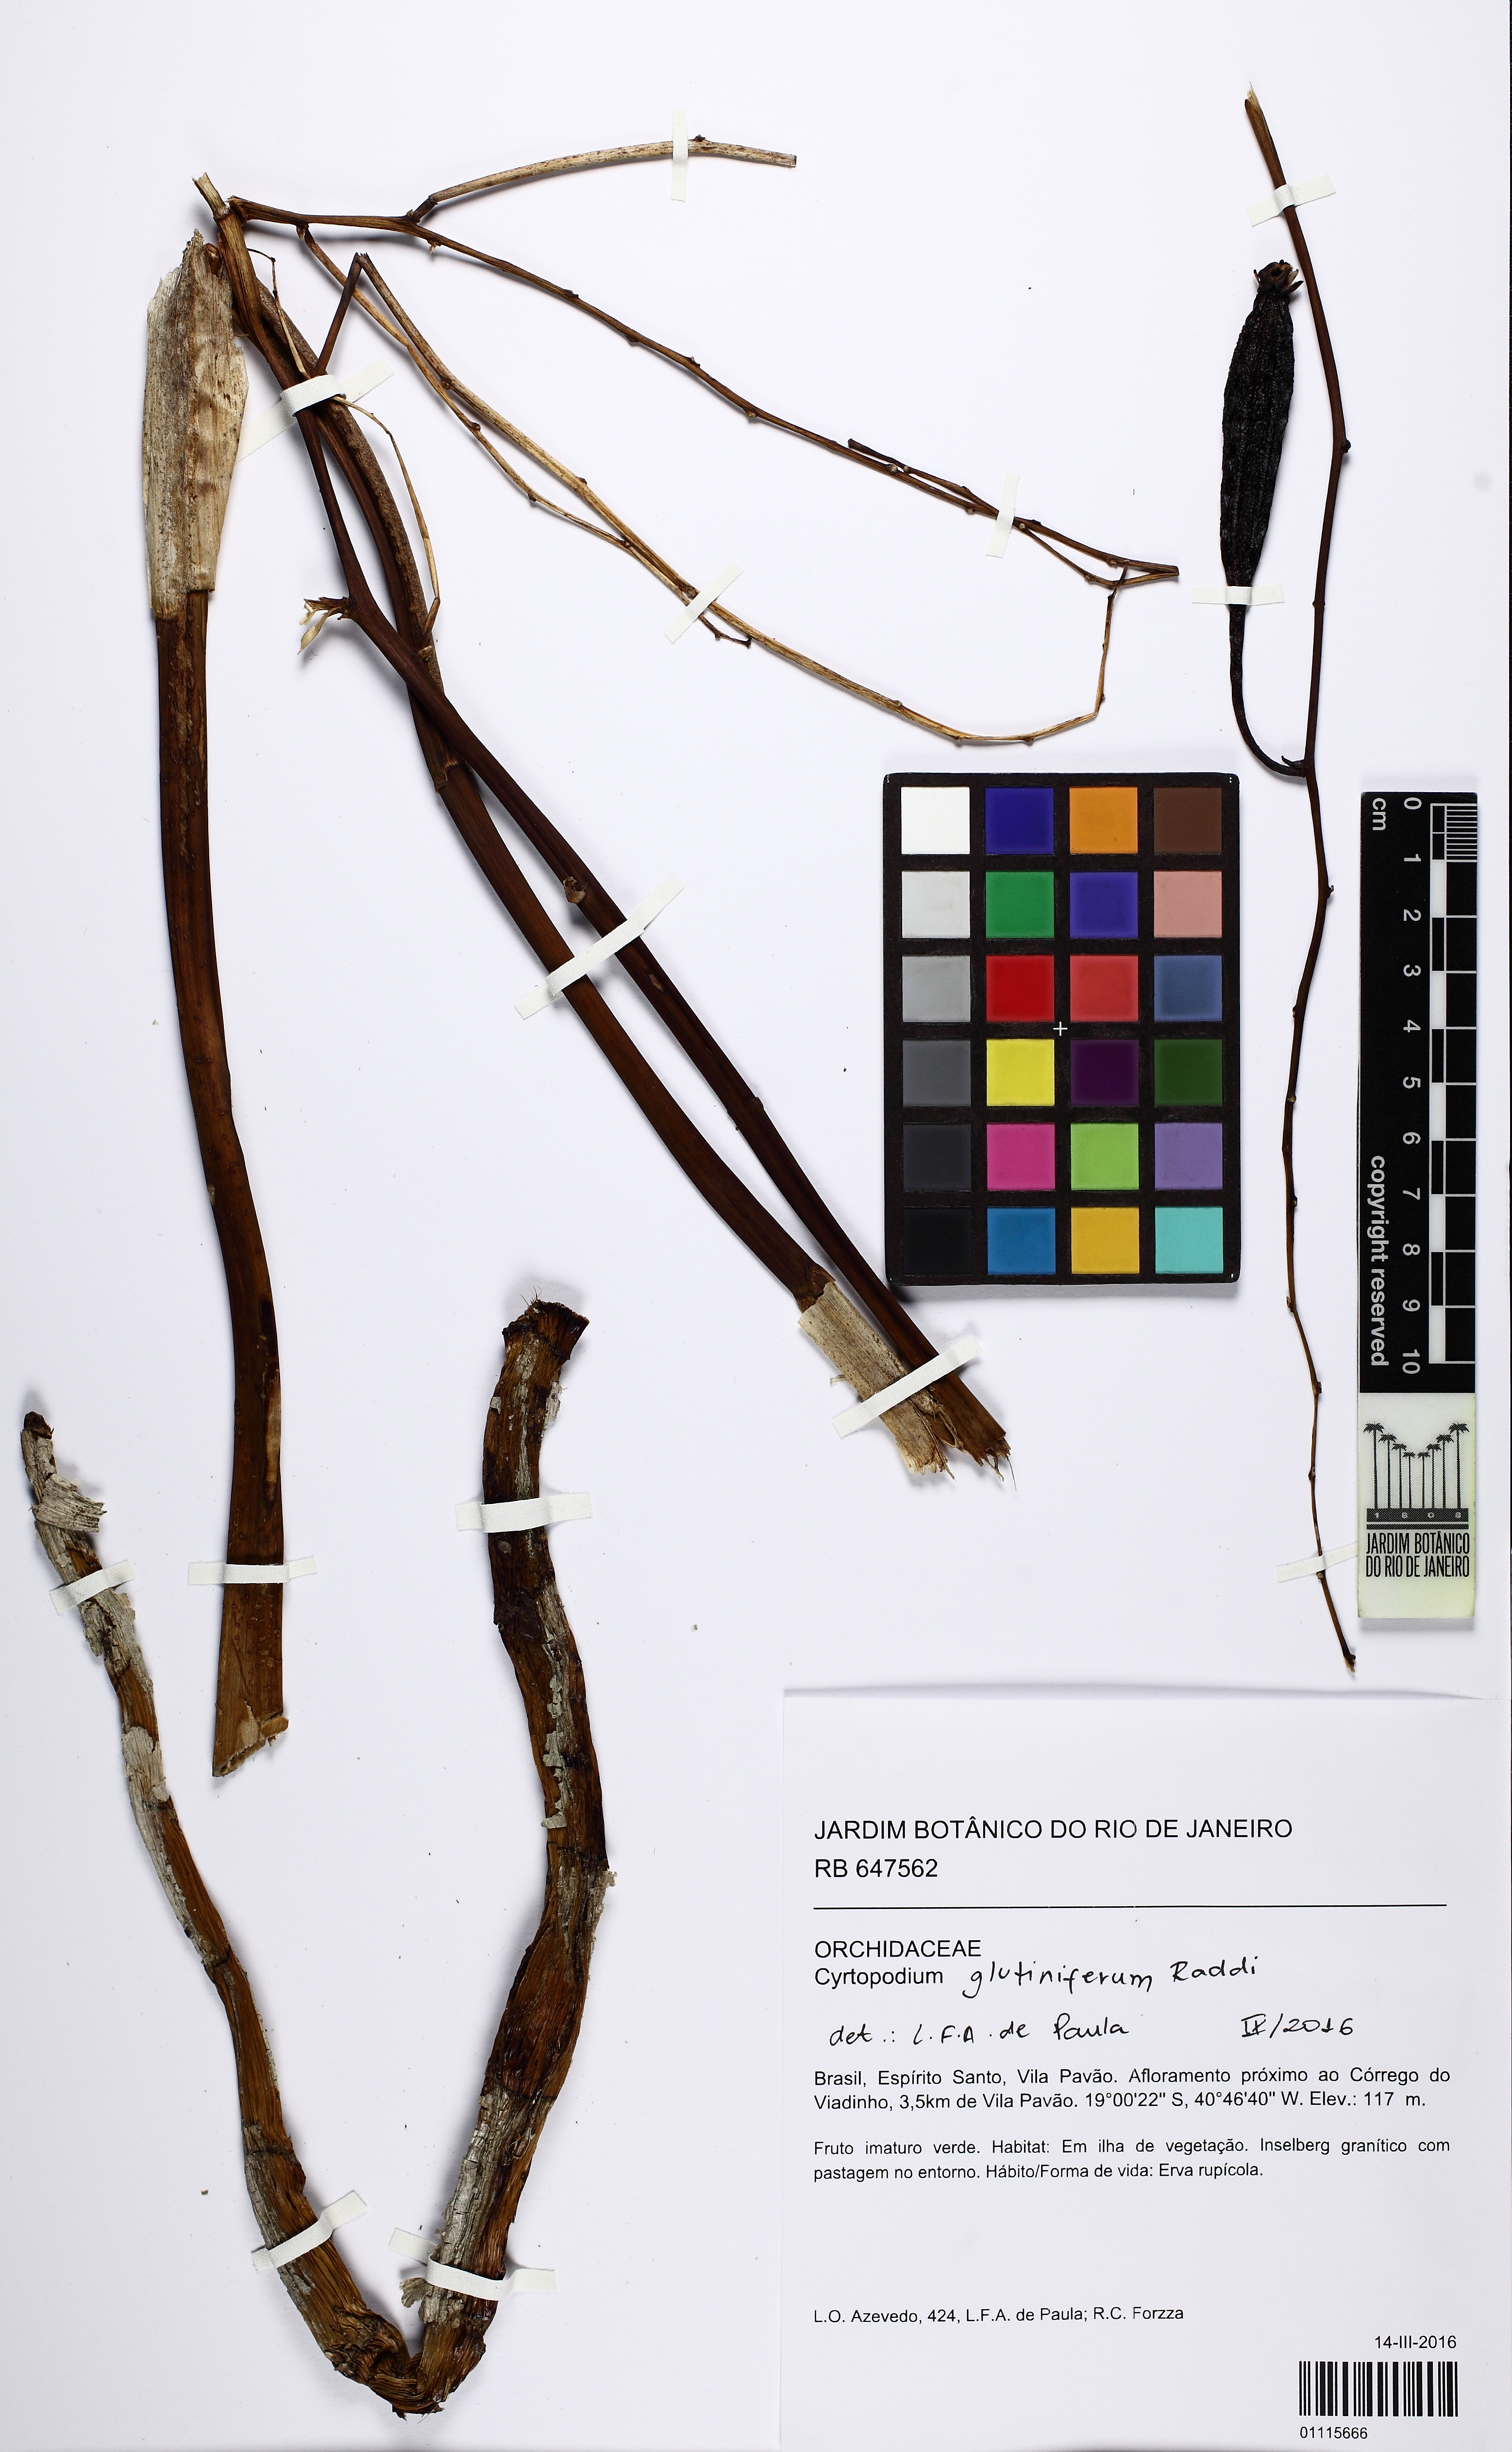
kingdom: Plantae
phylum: Tracheophyta
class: Liliopsida
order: Asparagales
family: Orchidaceae
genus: Cyrtopodium
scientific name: Cyrtopodium glutiniferum
